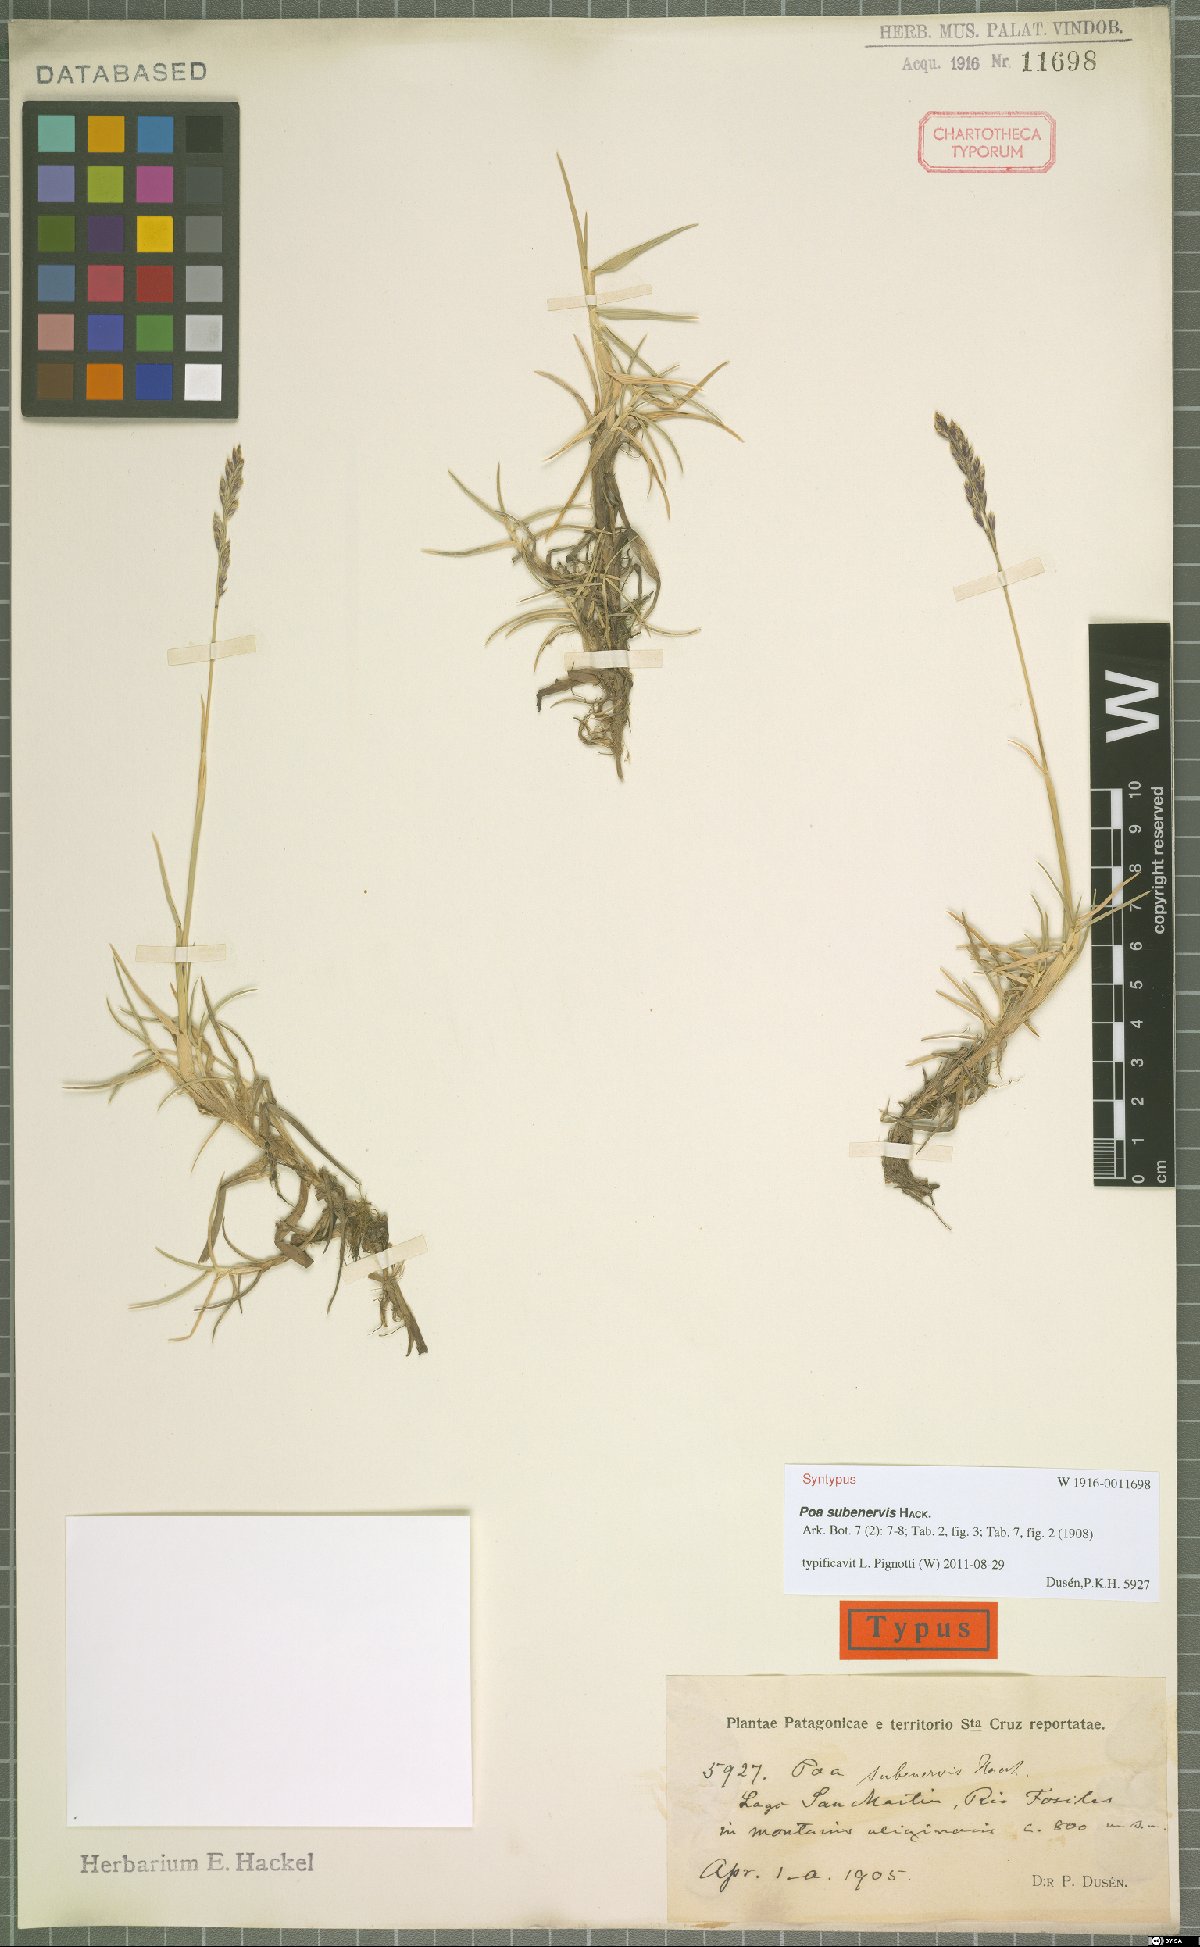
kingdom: Plantae
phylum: Tracheophyta
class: Liliopsida
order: Poales
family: Poaceae
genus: Nicoraepoa
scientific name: Nicoraepoa subenervis
